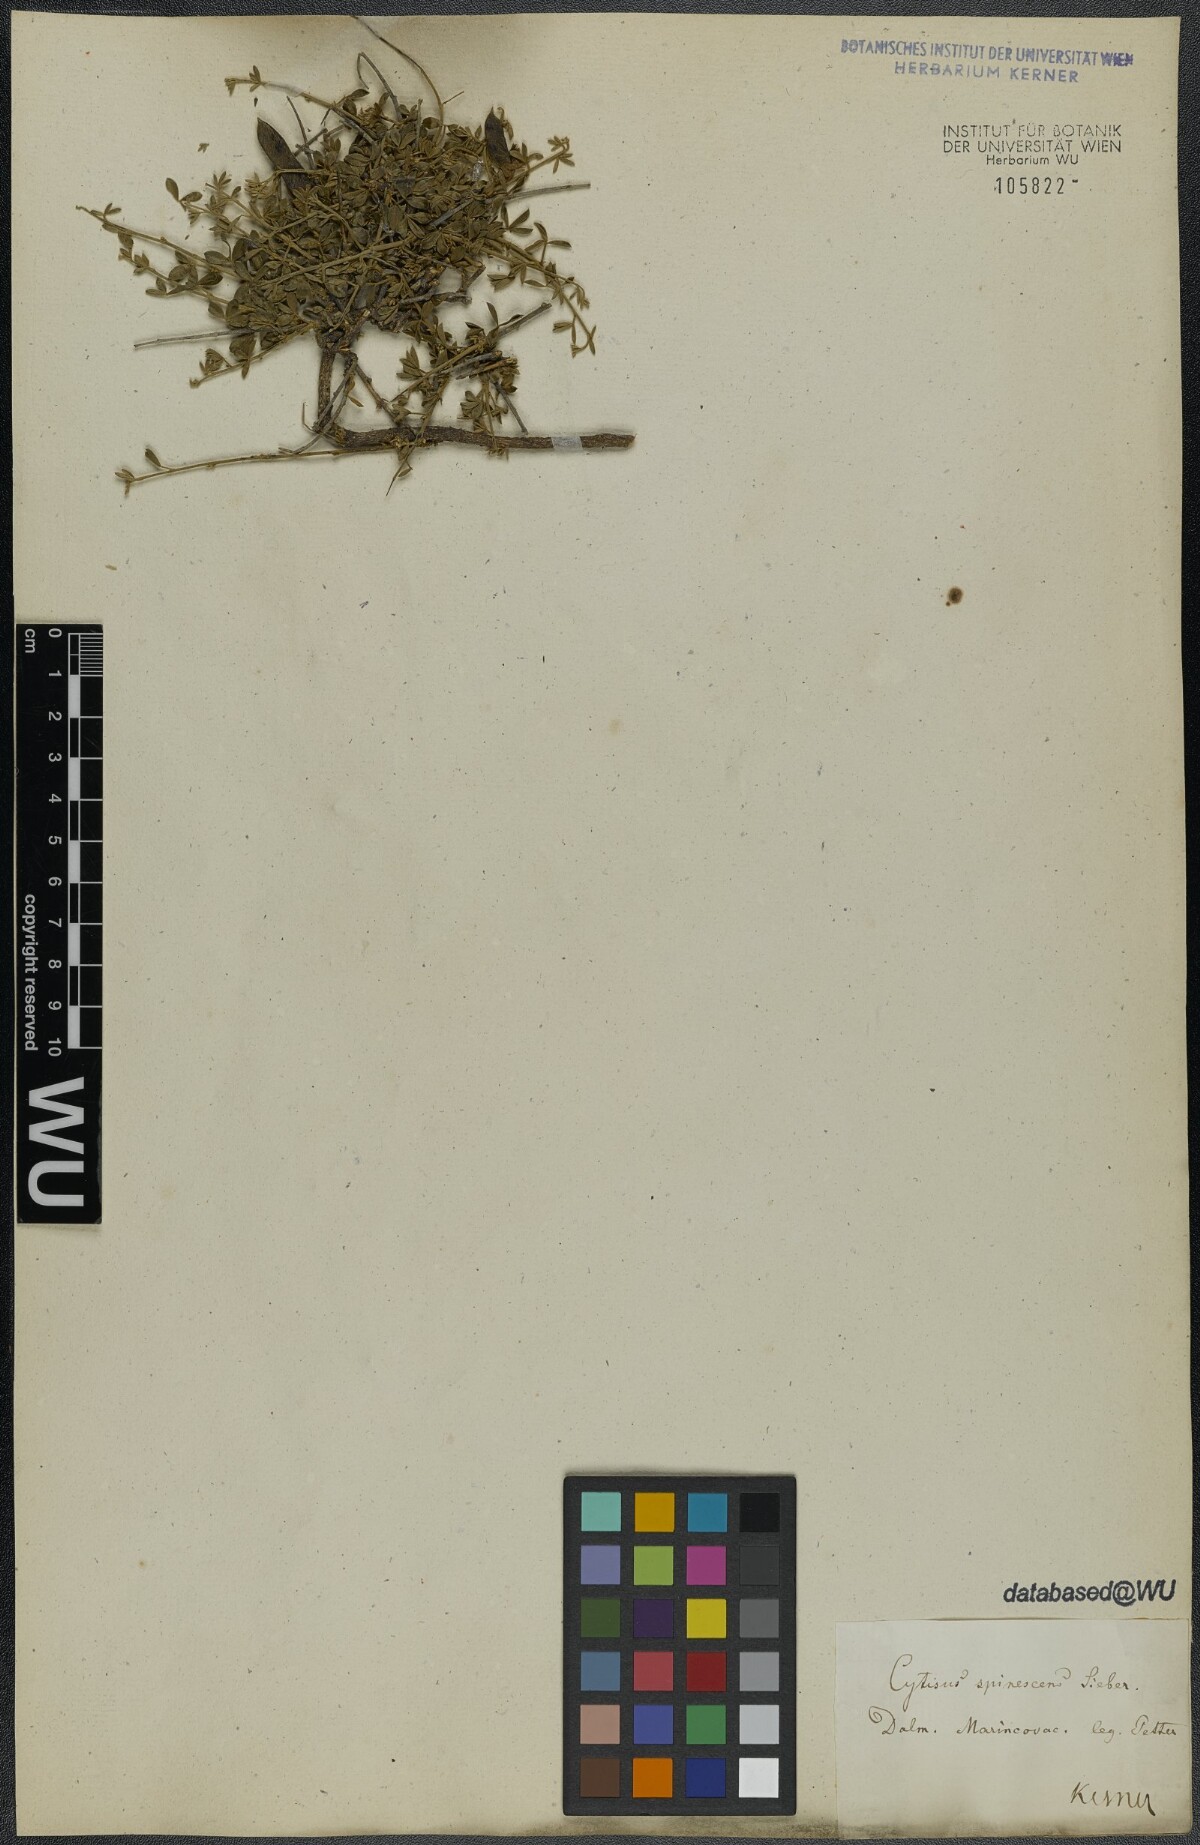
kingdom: Plantae
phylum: Tracheophyta
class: Magnoliopsida
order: Fabales
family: Fabaceae
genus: Chamaecytisus
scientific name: Chamaecytisus spinescens
